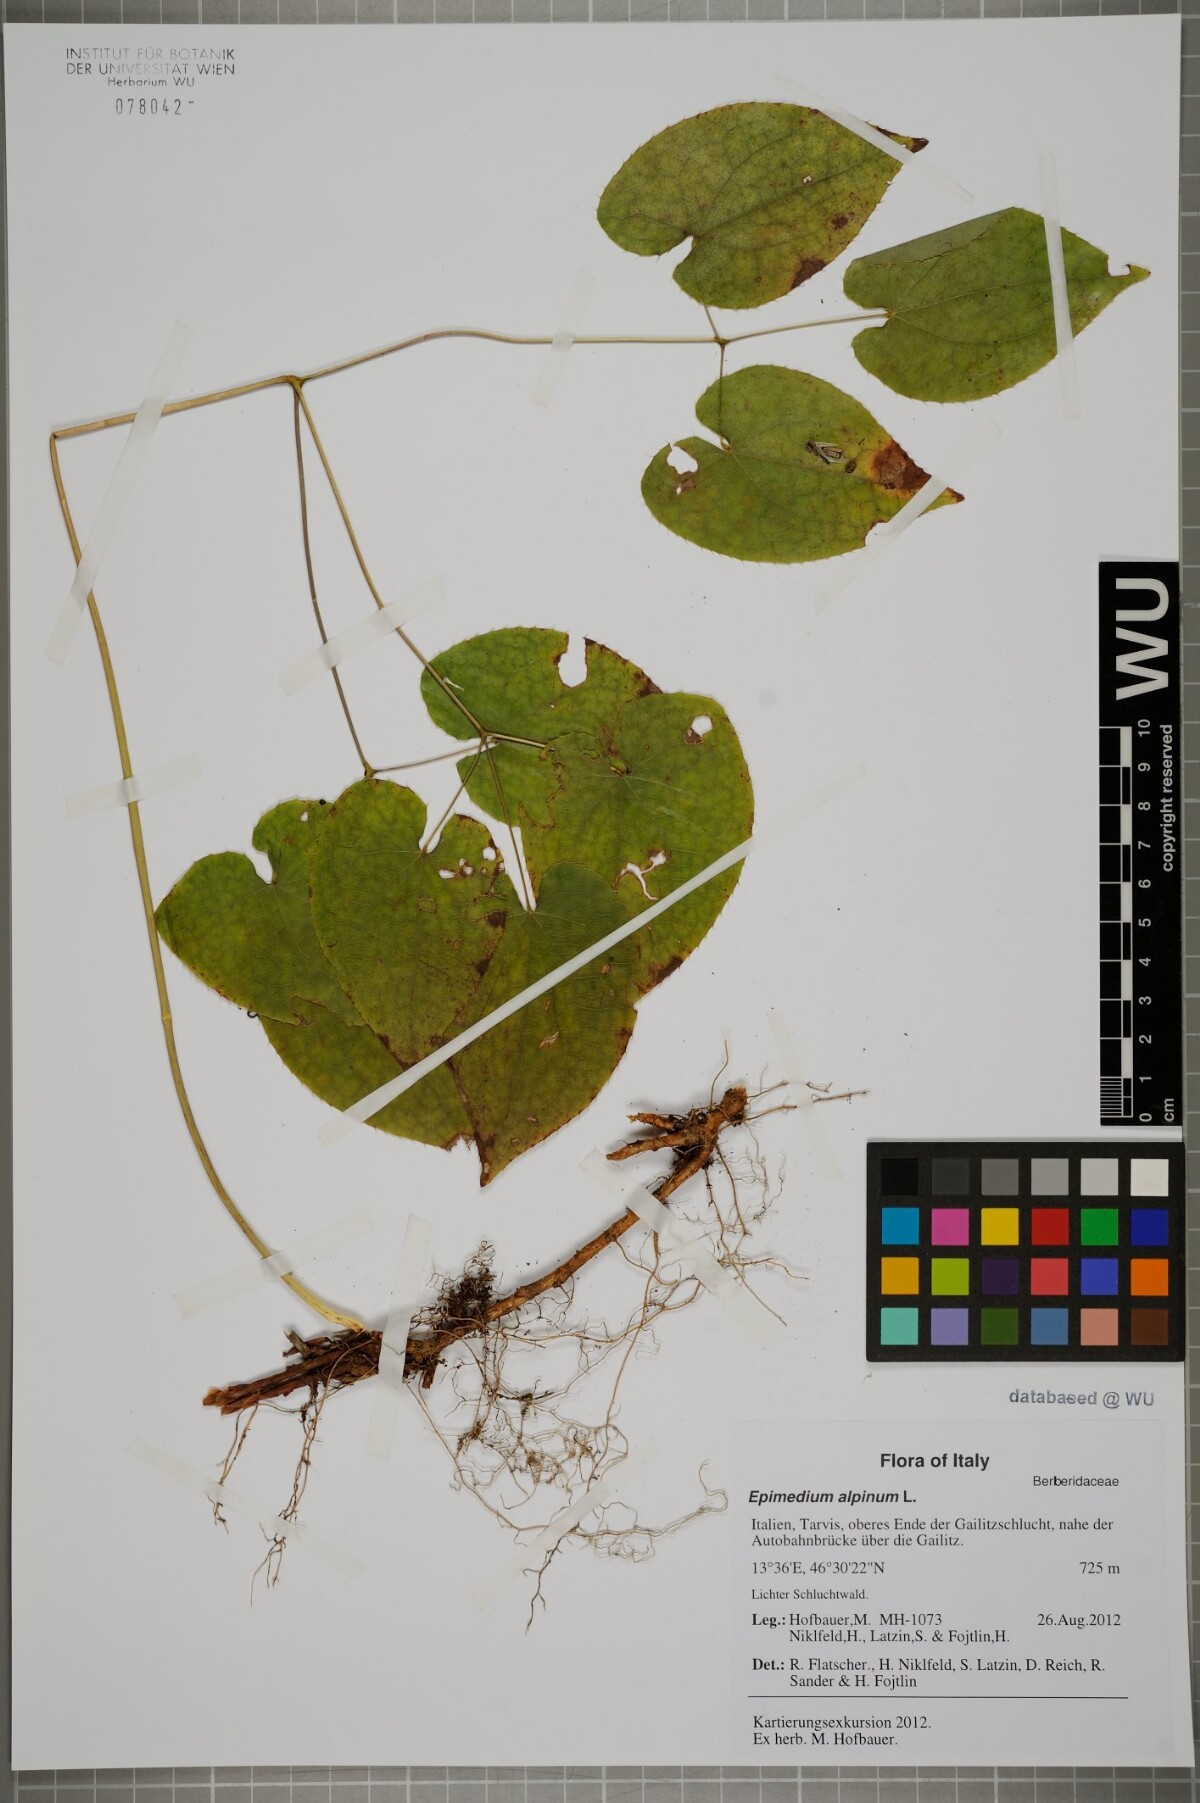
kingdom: Plantae
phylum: Tracheophyta
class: Magnoliopsida
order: Ranunculales
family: Berberidaceae
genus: Epimedium
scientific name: Epimedium alpinum
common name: Barrenwort
